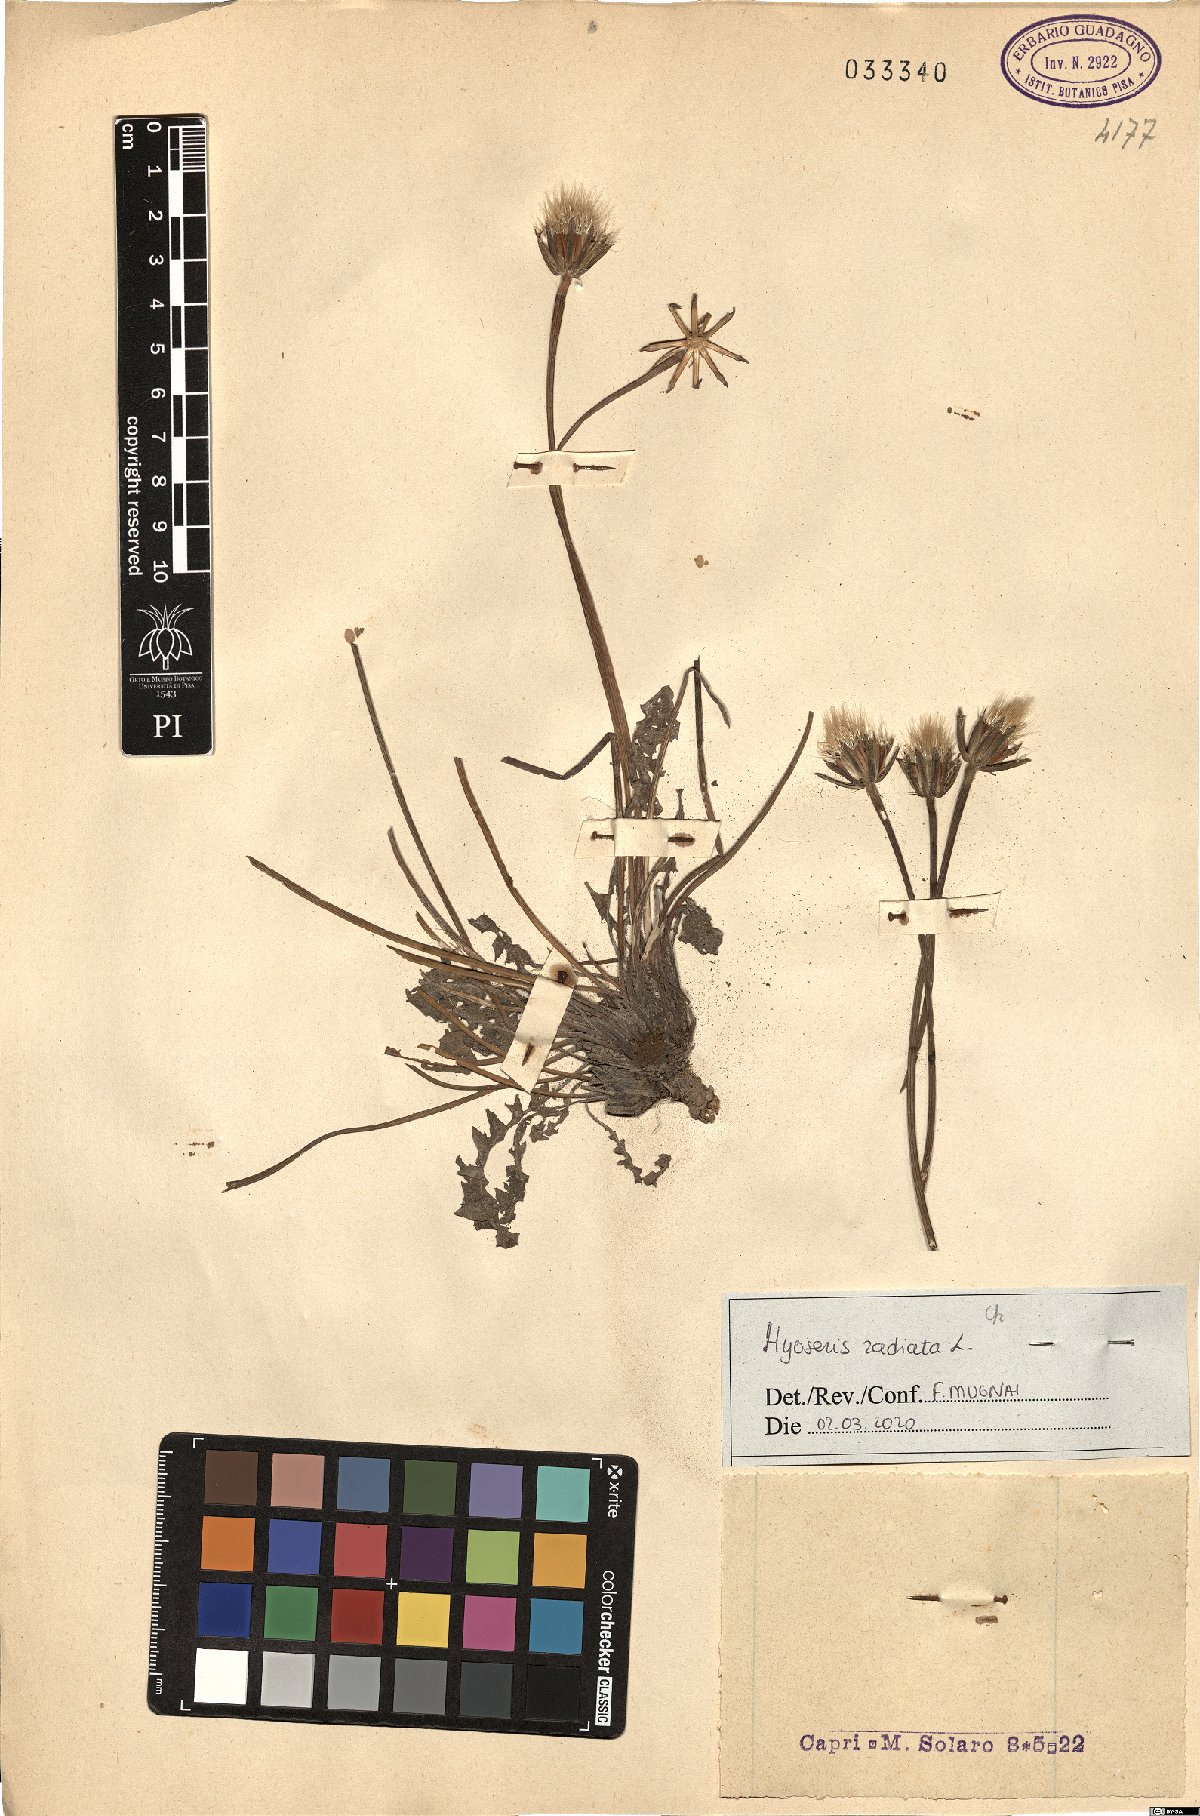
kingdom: Plantae
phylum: Tracheophyta
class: Magnoliopsida
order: Asterales
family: Asteraceae
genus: Hyoseris
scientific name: Hyoseris radiata
